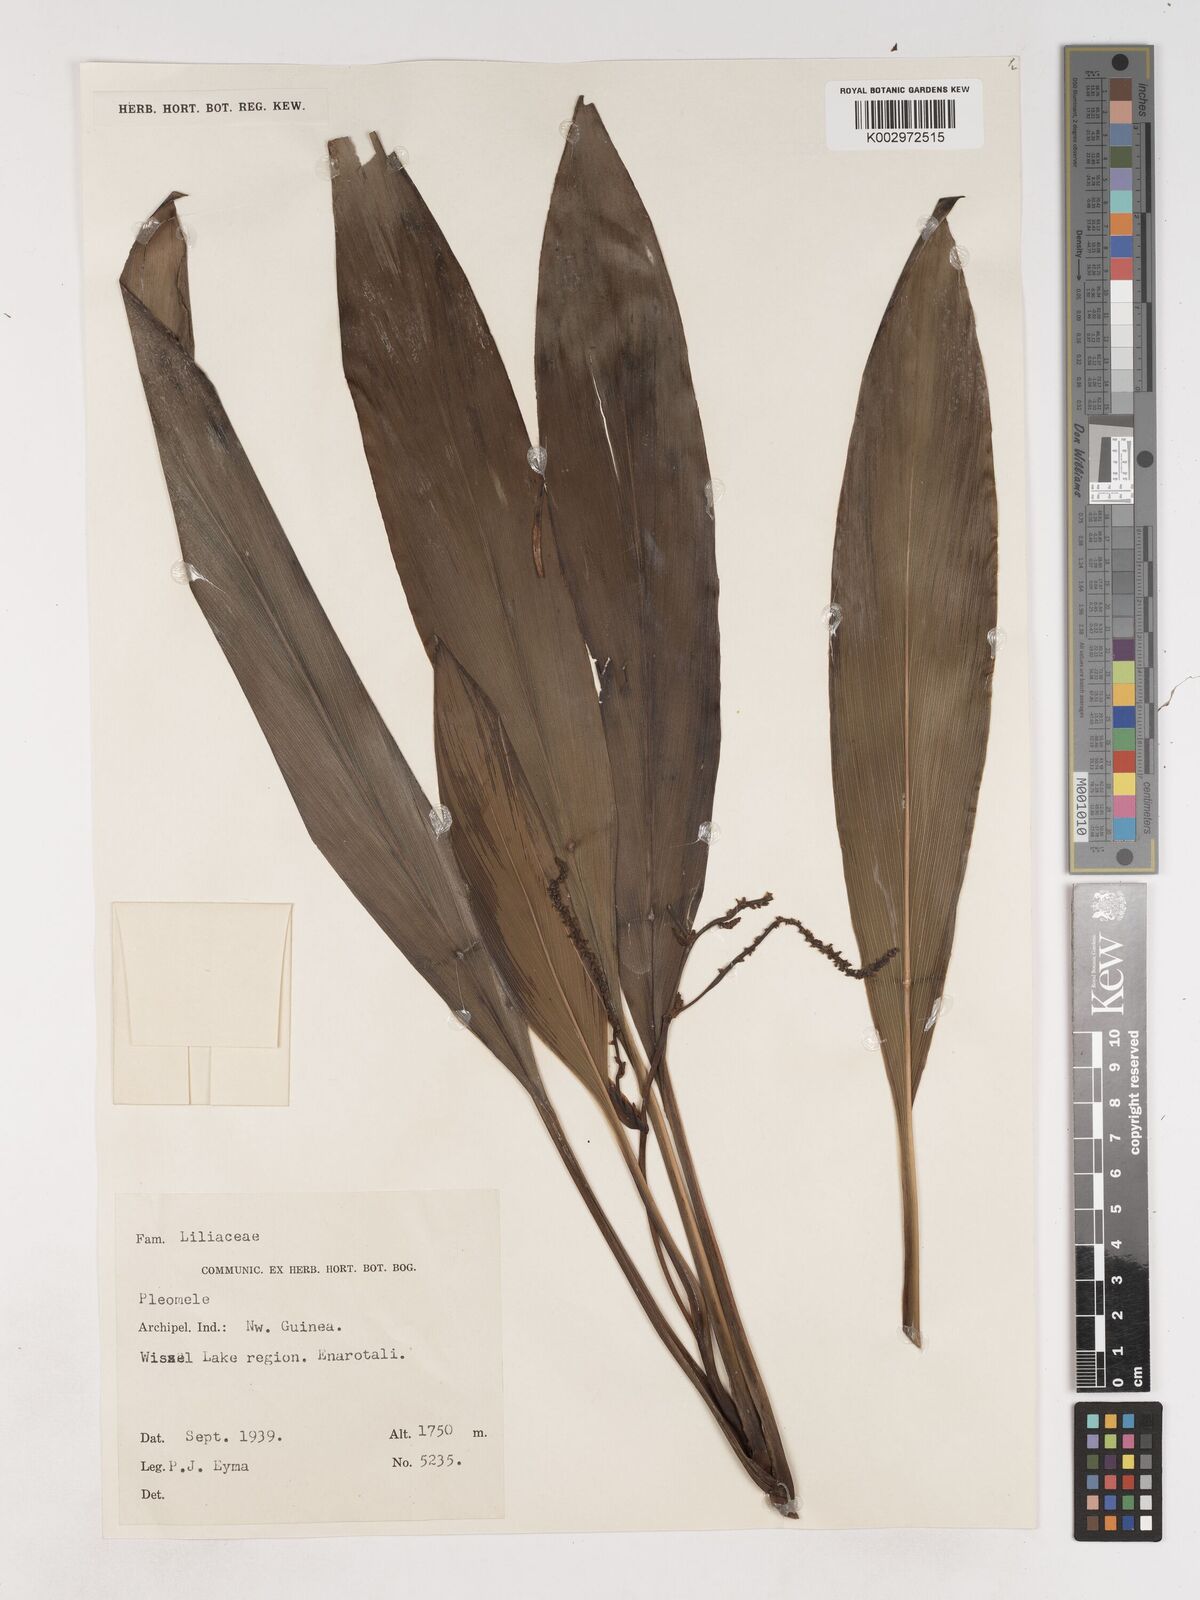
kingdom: Plantae
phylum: Tracheophyta
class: Liliopsida
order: Asparagales
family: Asparagaceae
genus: Cordyline
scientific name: Cordyline
